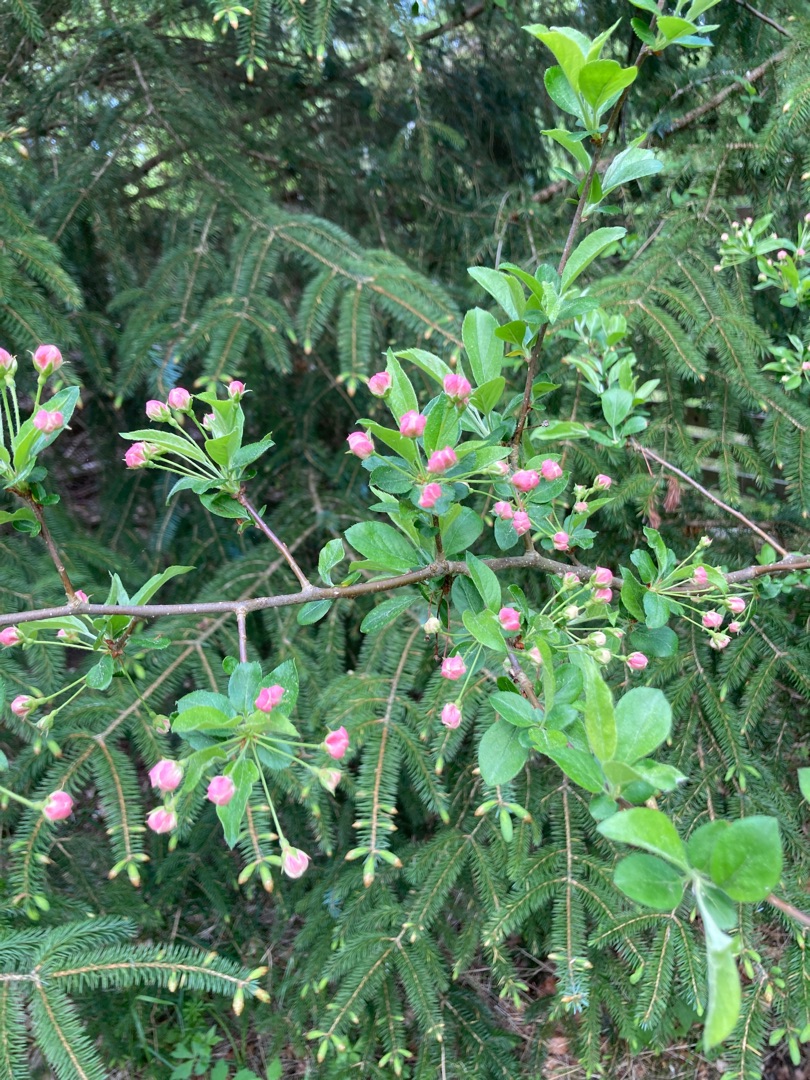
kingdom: Plantae
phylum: Tracheophyta
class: Magnoliopsida
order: Rosales
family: Rosaceae
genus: Malus
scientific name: Malus floribunda
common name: Japansk paradisæble
